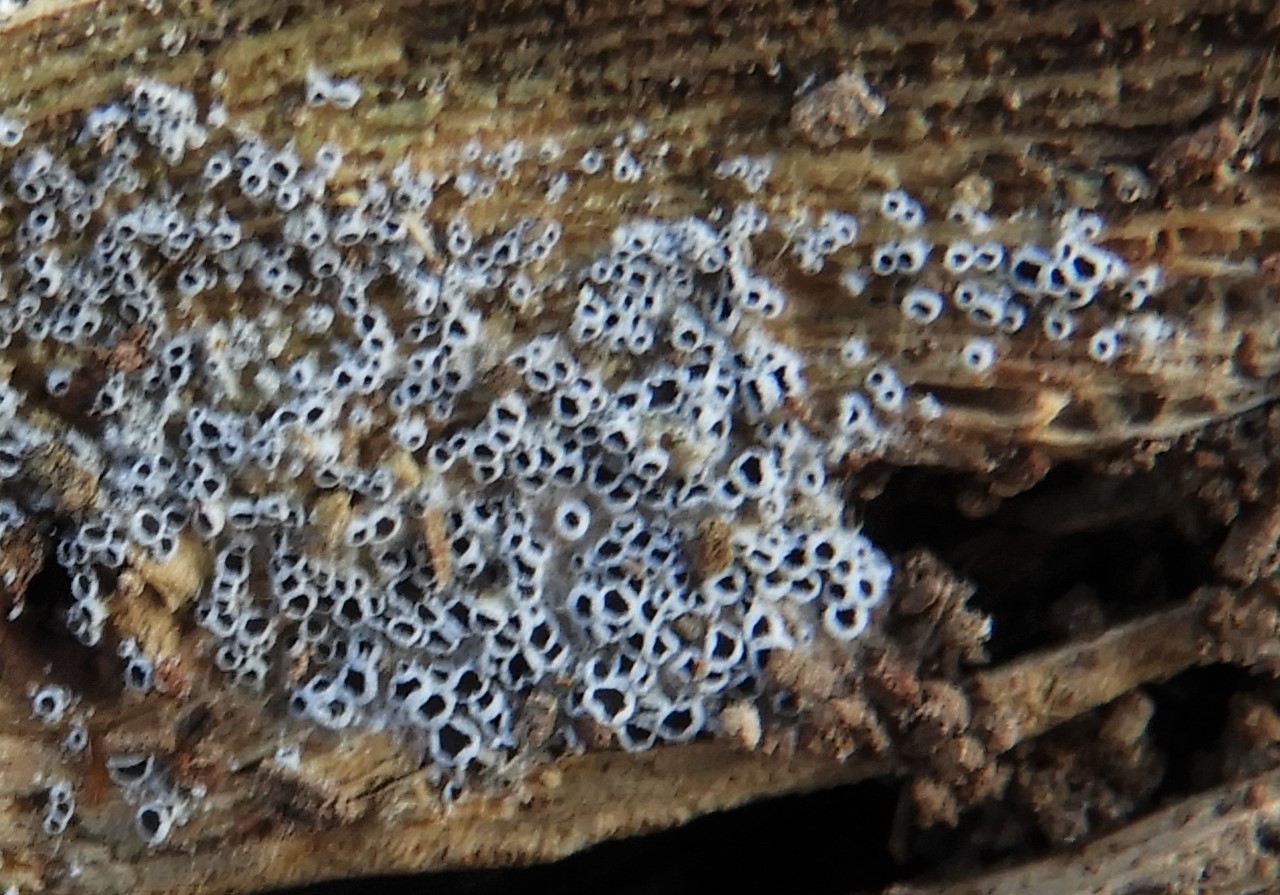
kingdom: Fungi
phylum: Ascomycota
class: Leotiomycetes
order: Helotiales
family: Arachnopezizaceae
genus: Eriopezia
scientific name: Eriopezia caesia
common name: ege-spindskive
